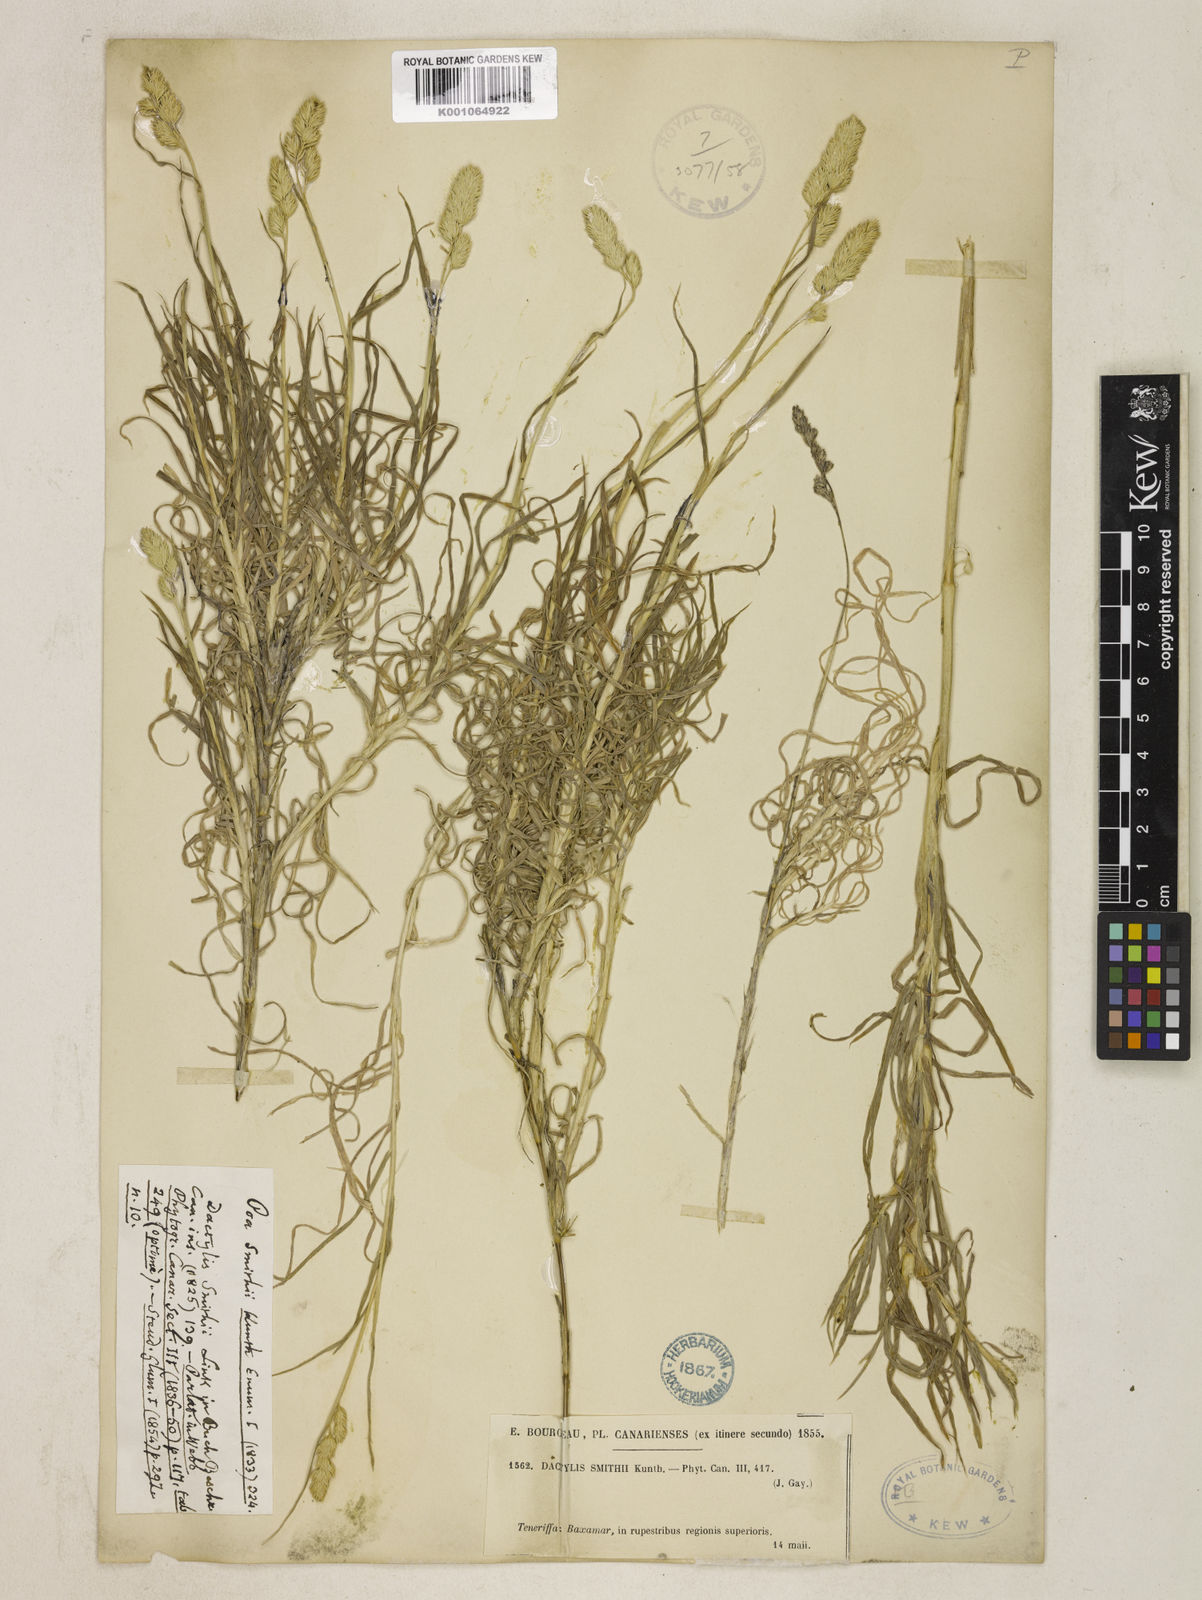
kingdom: Plantae
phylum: Tracheophyta
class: Liliopsida
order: Poales
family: Poaceae
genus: Dactylis
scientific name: Dactylis glomerata
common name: Orchardgrass
